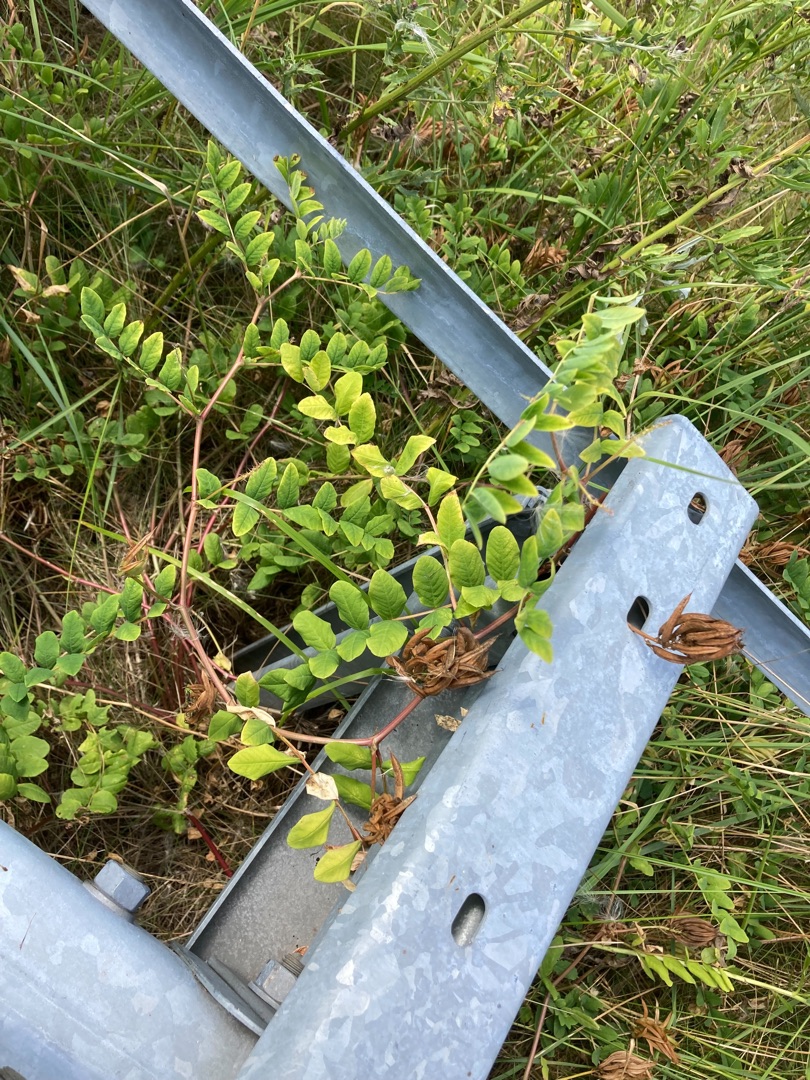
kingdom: Plantae
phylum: Tracheophyta
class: Magnoliopsida
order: Fabales
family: Fabaceae
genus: Astragalus
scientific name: Astragalus glycyphyllos
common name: Sød astragel
